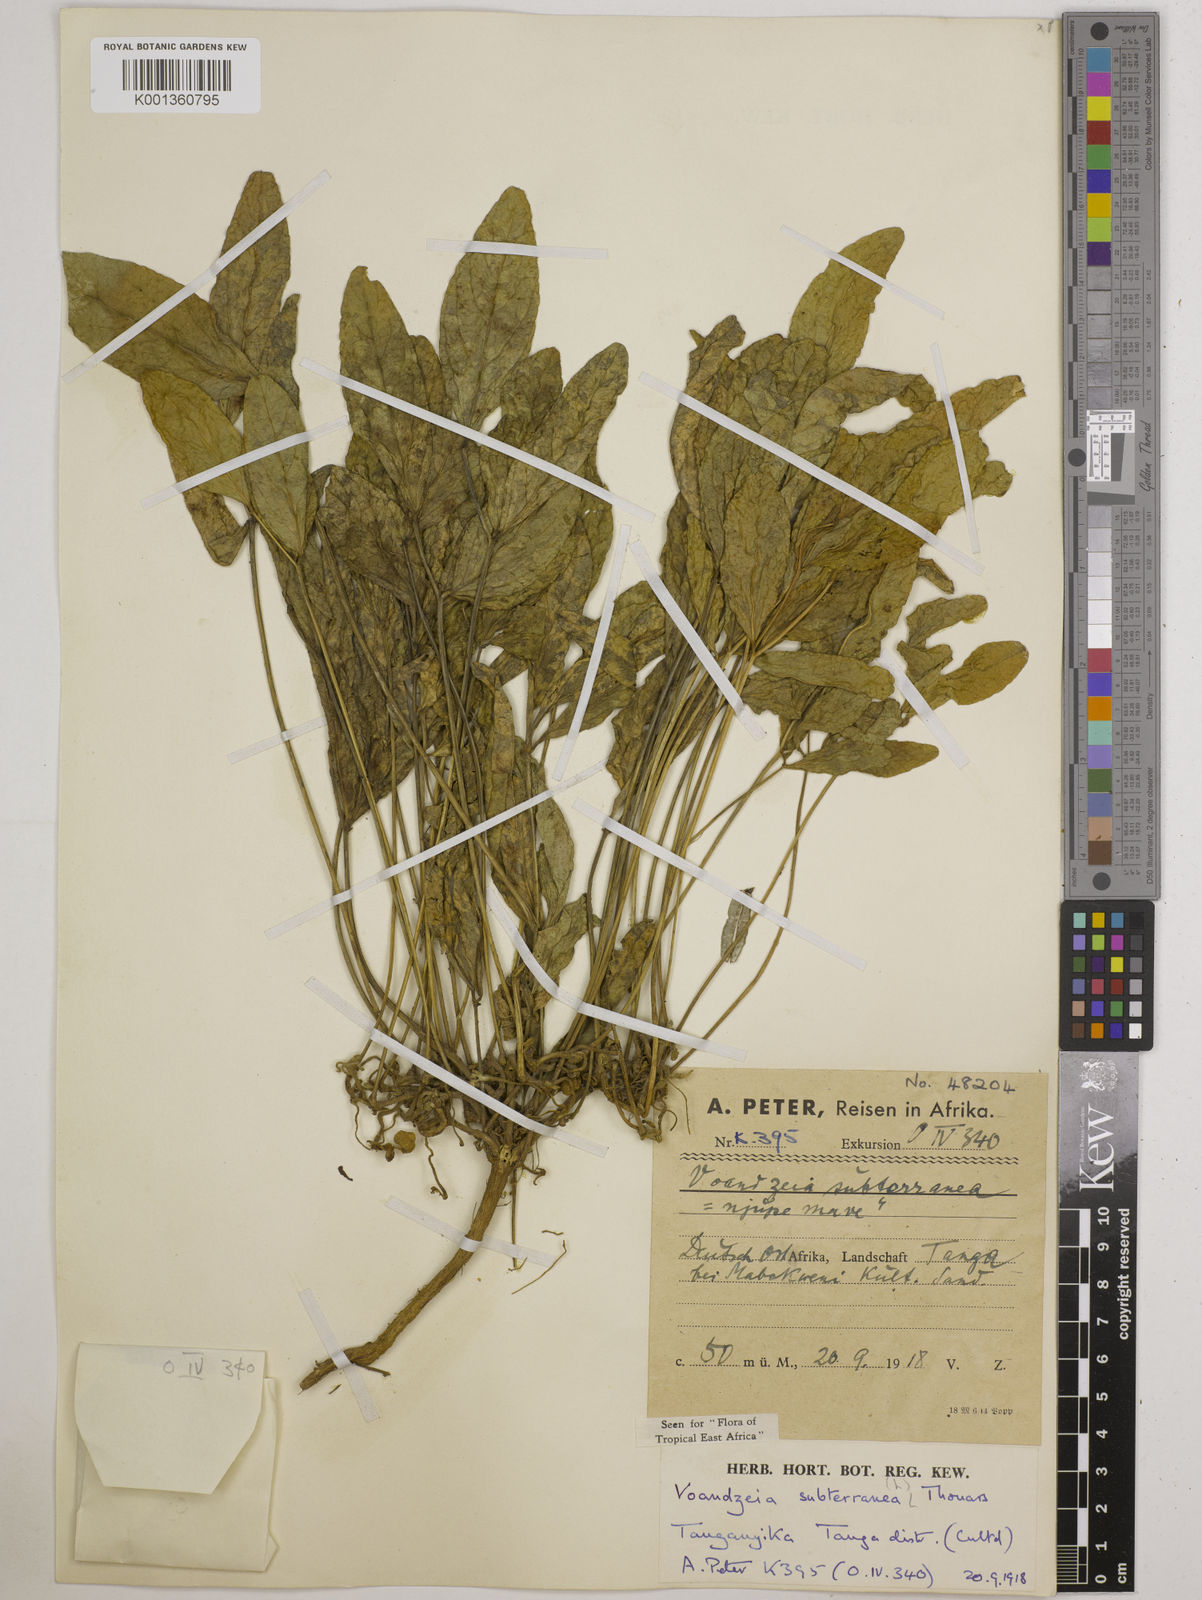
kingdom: Plantae
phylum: Tracheophyta
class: Magnoliopsida
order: Fabales
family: Fabaceae
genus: Vigna
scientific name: Vigna subterranea
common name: Bambara groundnut
